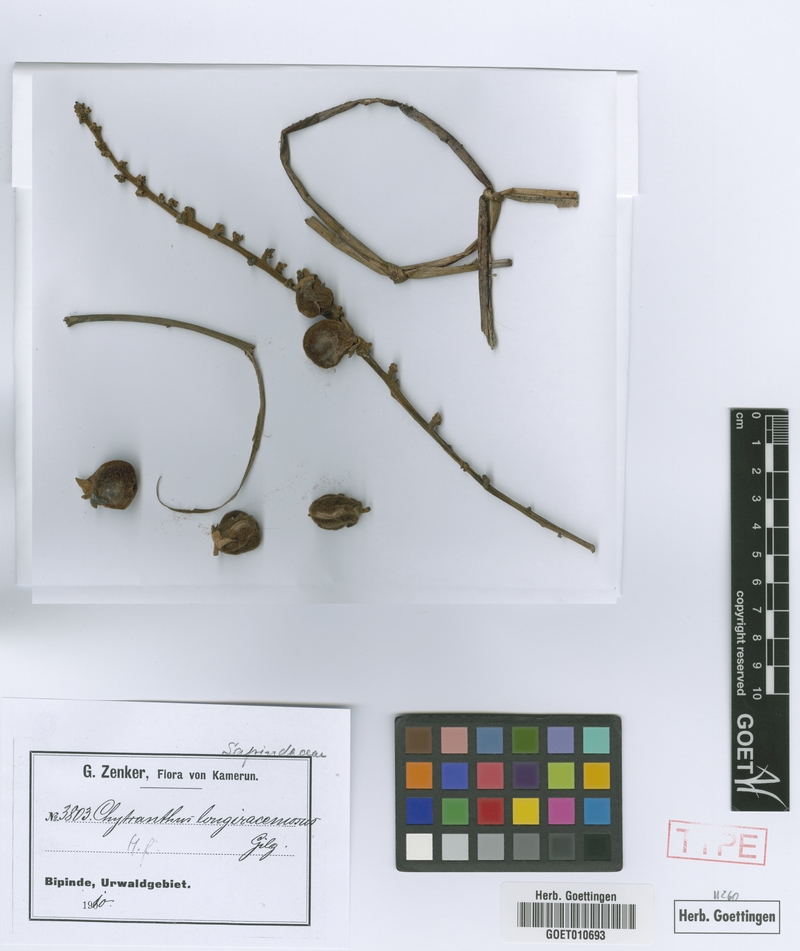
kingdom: Plantae
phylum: Tracheophyta
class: Magnoliopsida
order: Sapindales
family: Sapindaceae
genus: Chytranthus
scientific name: Chytranthus carneus
